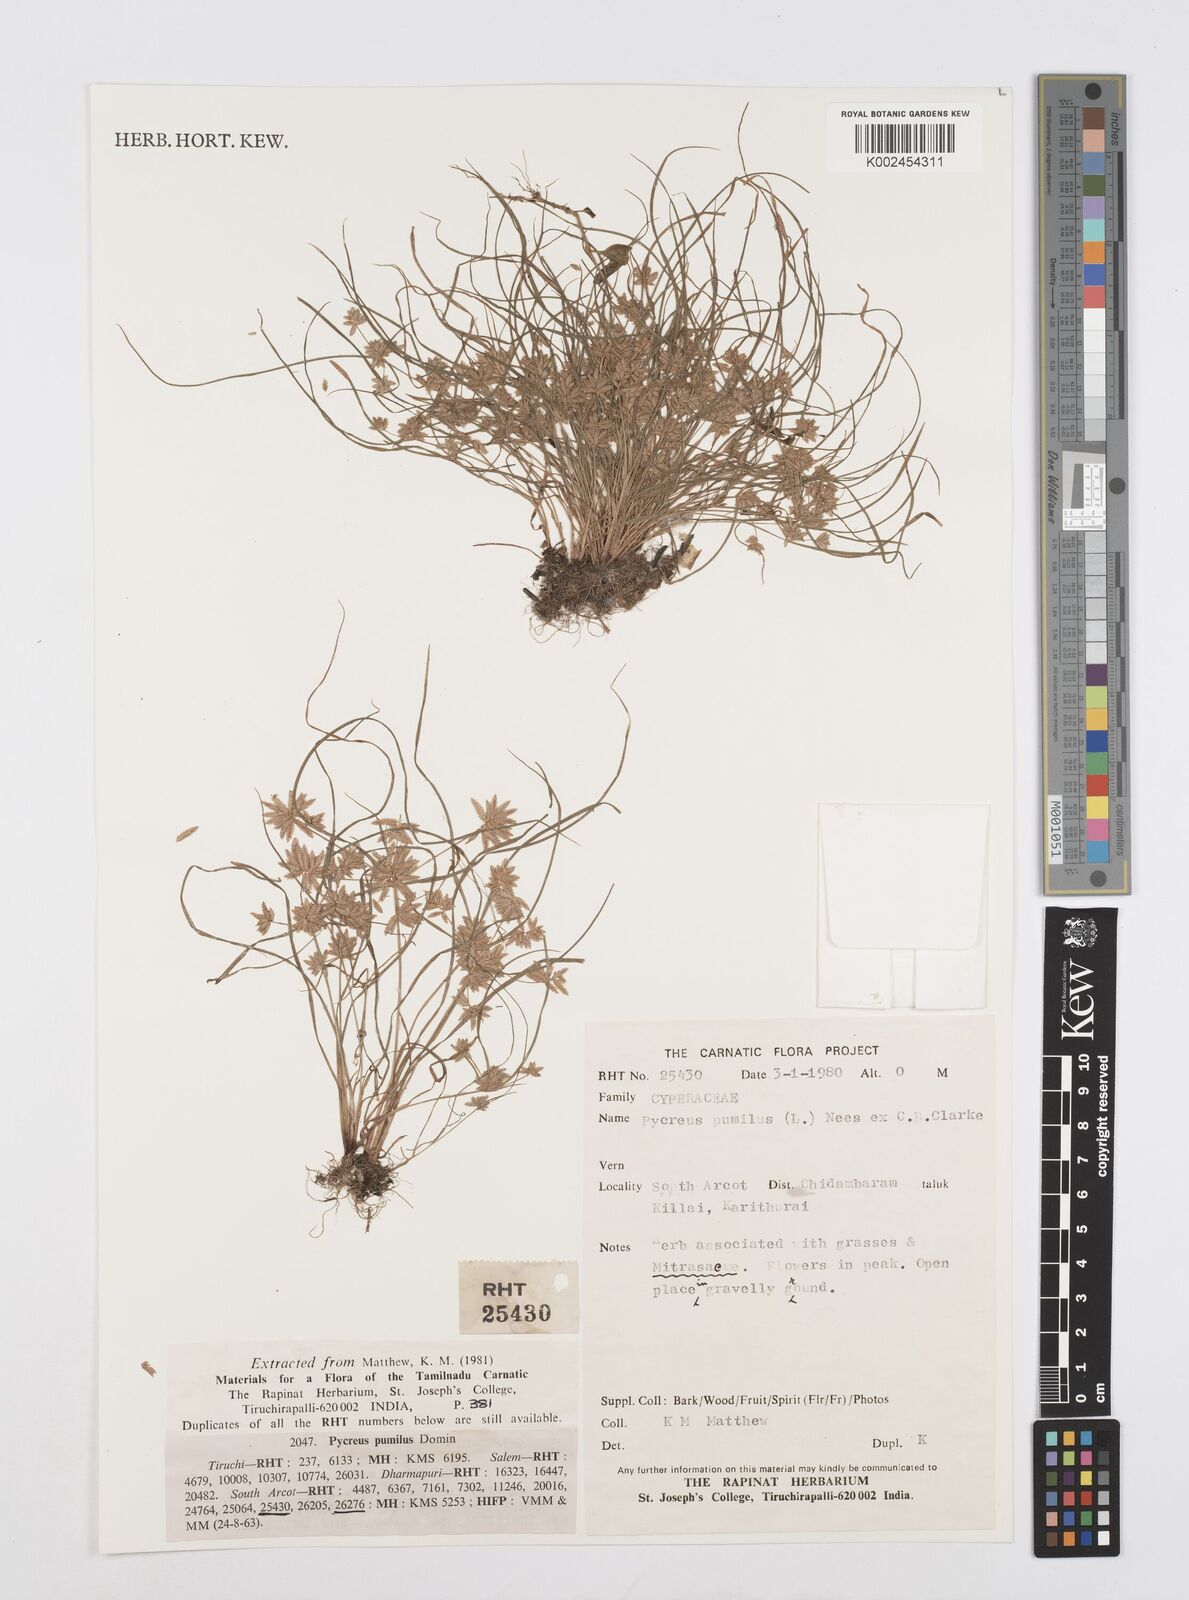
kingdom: Plantae
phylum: Tracheophyta
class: Liliopsida
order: Poales
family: Cyperaceae
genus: Cyperus
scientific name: Cyperus pumilus
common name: Low flatsedge
